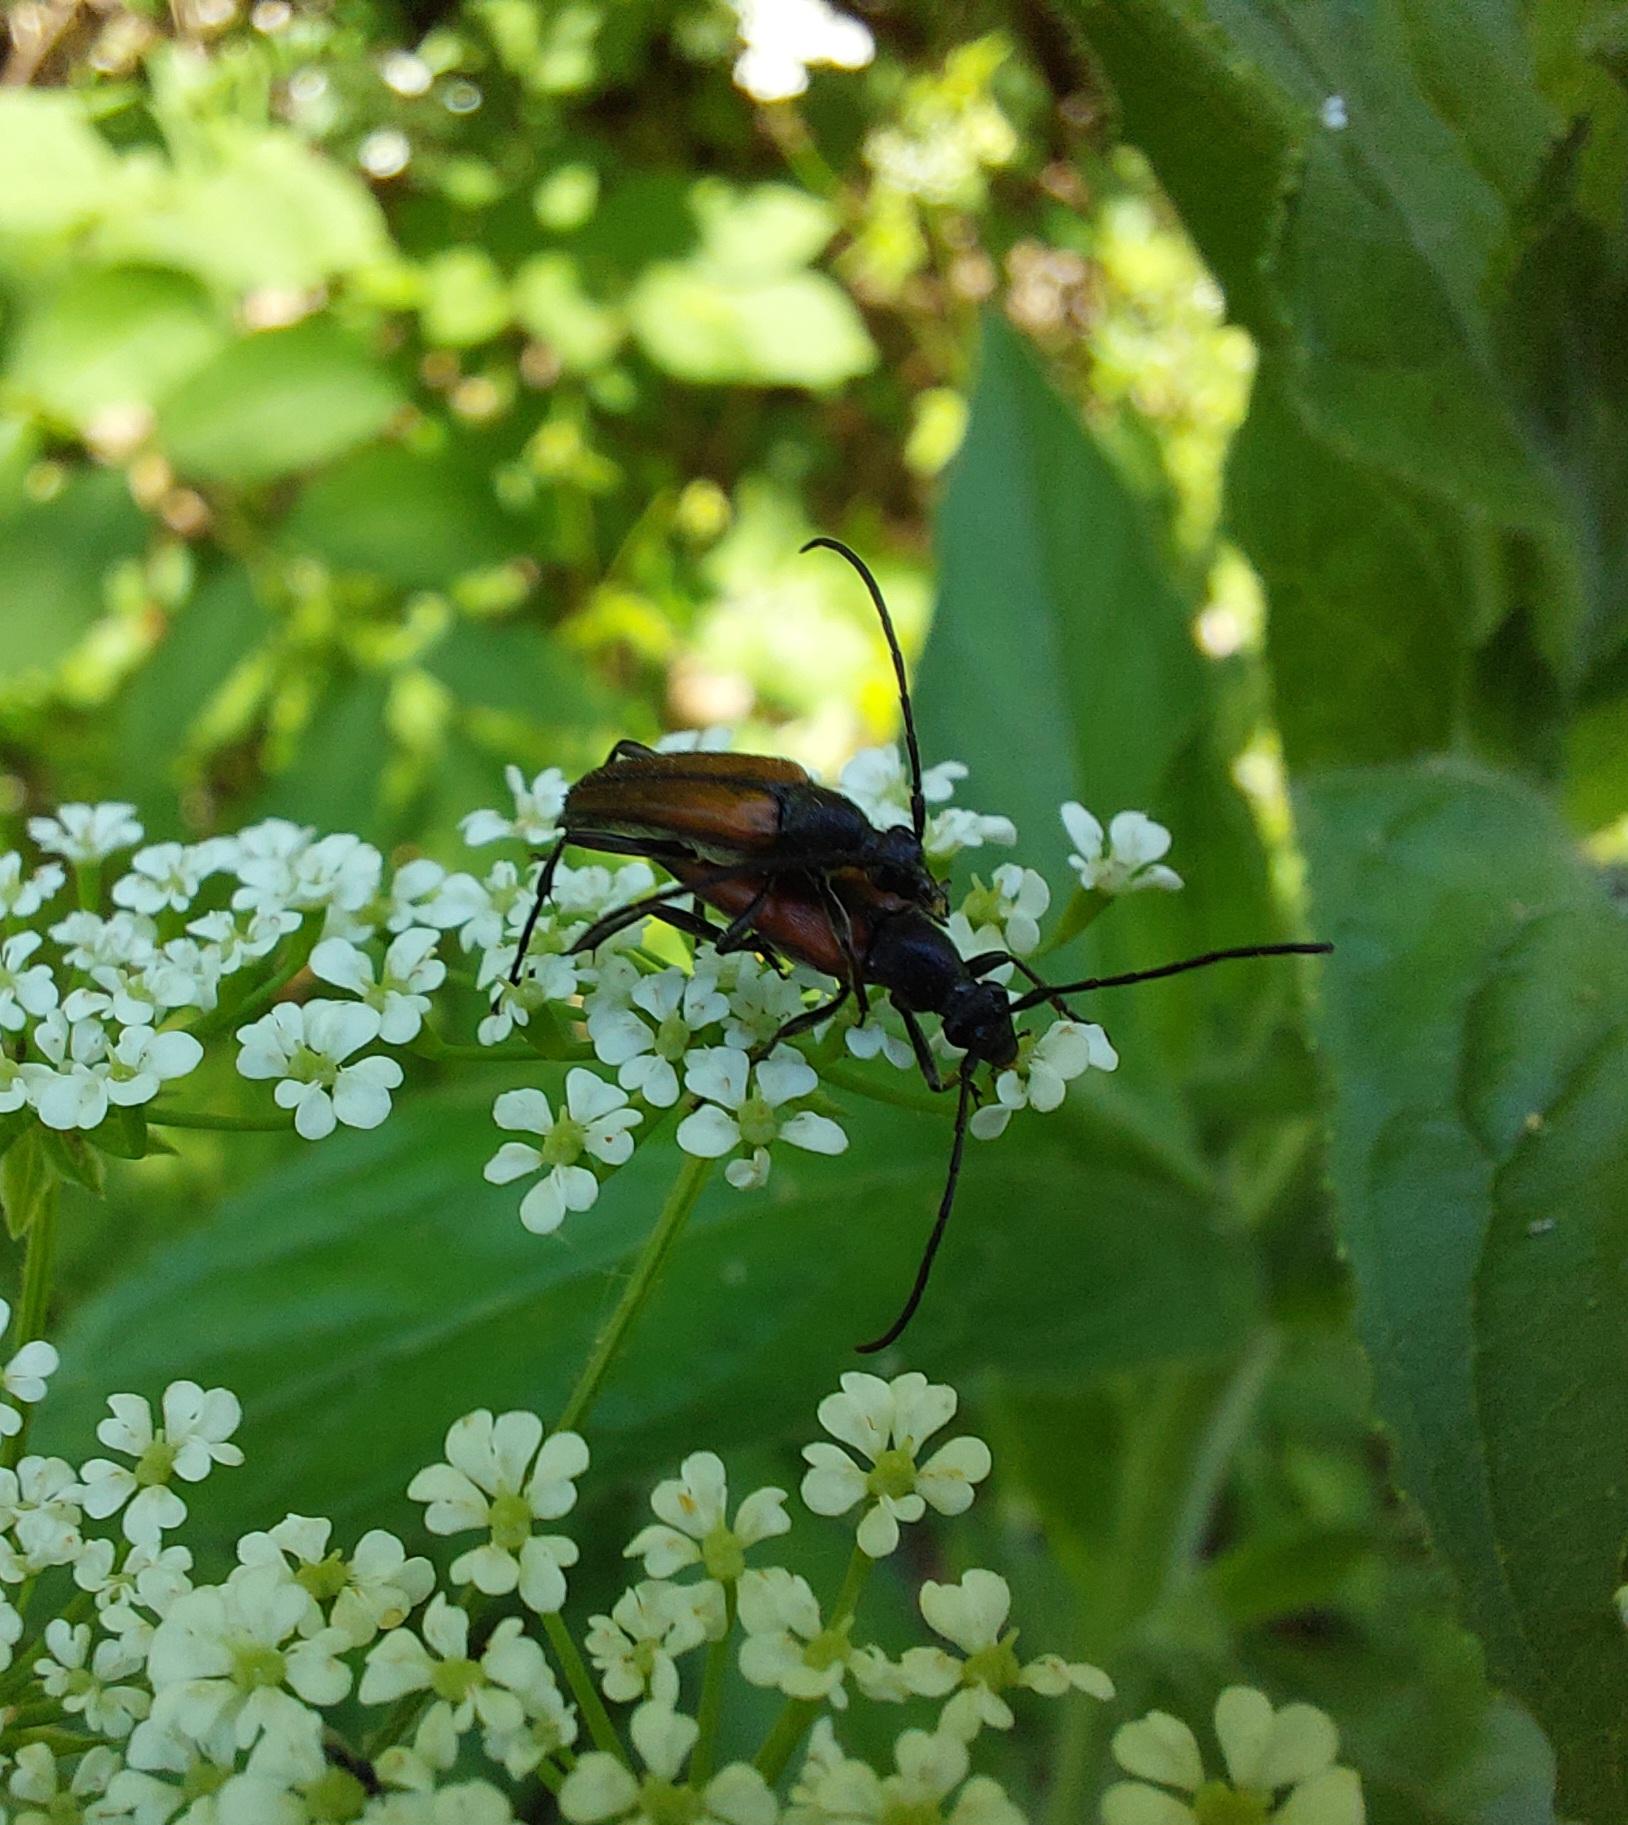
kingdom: Animalia
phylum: Arthropoda
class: Insecta
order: Coleoptera
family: Cerambycidae
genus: Stenurella
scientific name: Stenurella melanura
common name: Sortsømmet blomsterbuk
